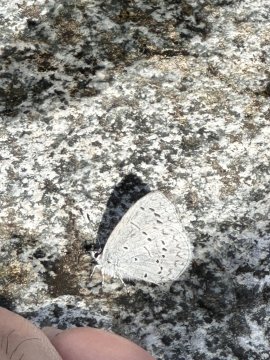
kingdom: Animalia
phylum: Arthropoda
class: Insecta
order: Lepidoptera
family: Lycaenidae
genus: Celastrina
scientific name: Celastrina ladon
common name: Echo Azure
